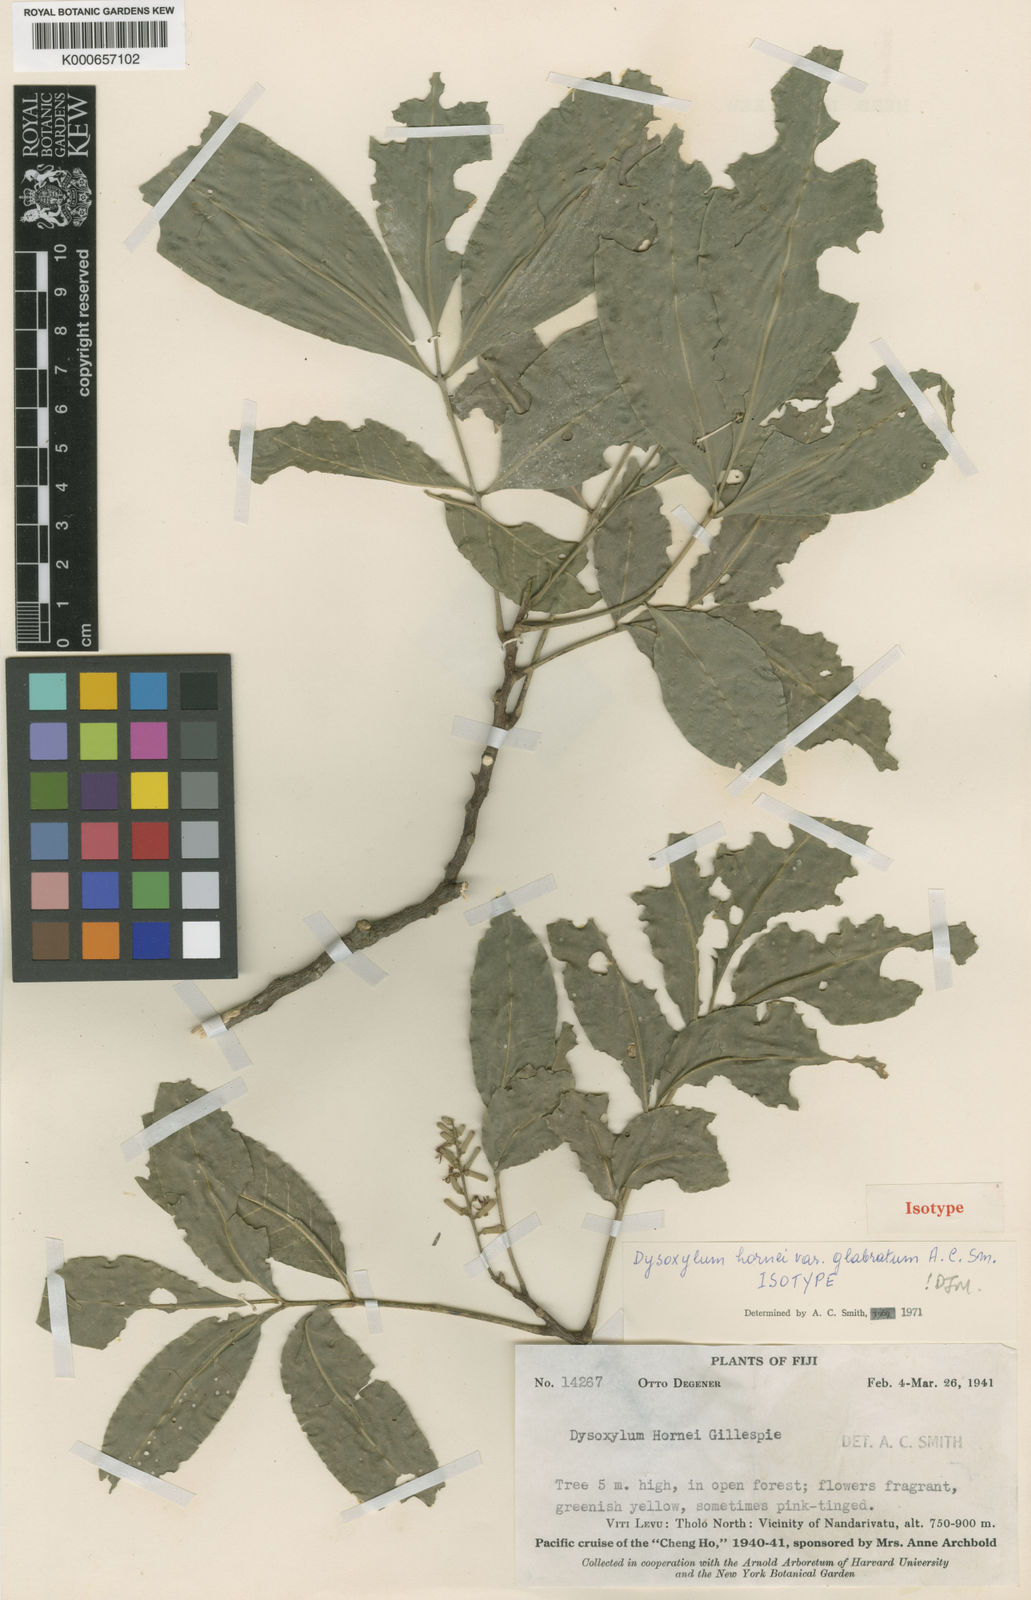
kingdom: Plantae
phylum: Tracheophyta
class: Magnoliopsida
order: Sapindales
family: Meliaceae
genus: Didymocheton
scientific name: Didymocheton hornei
